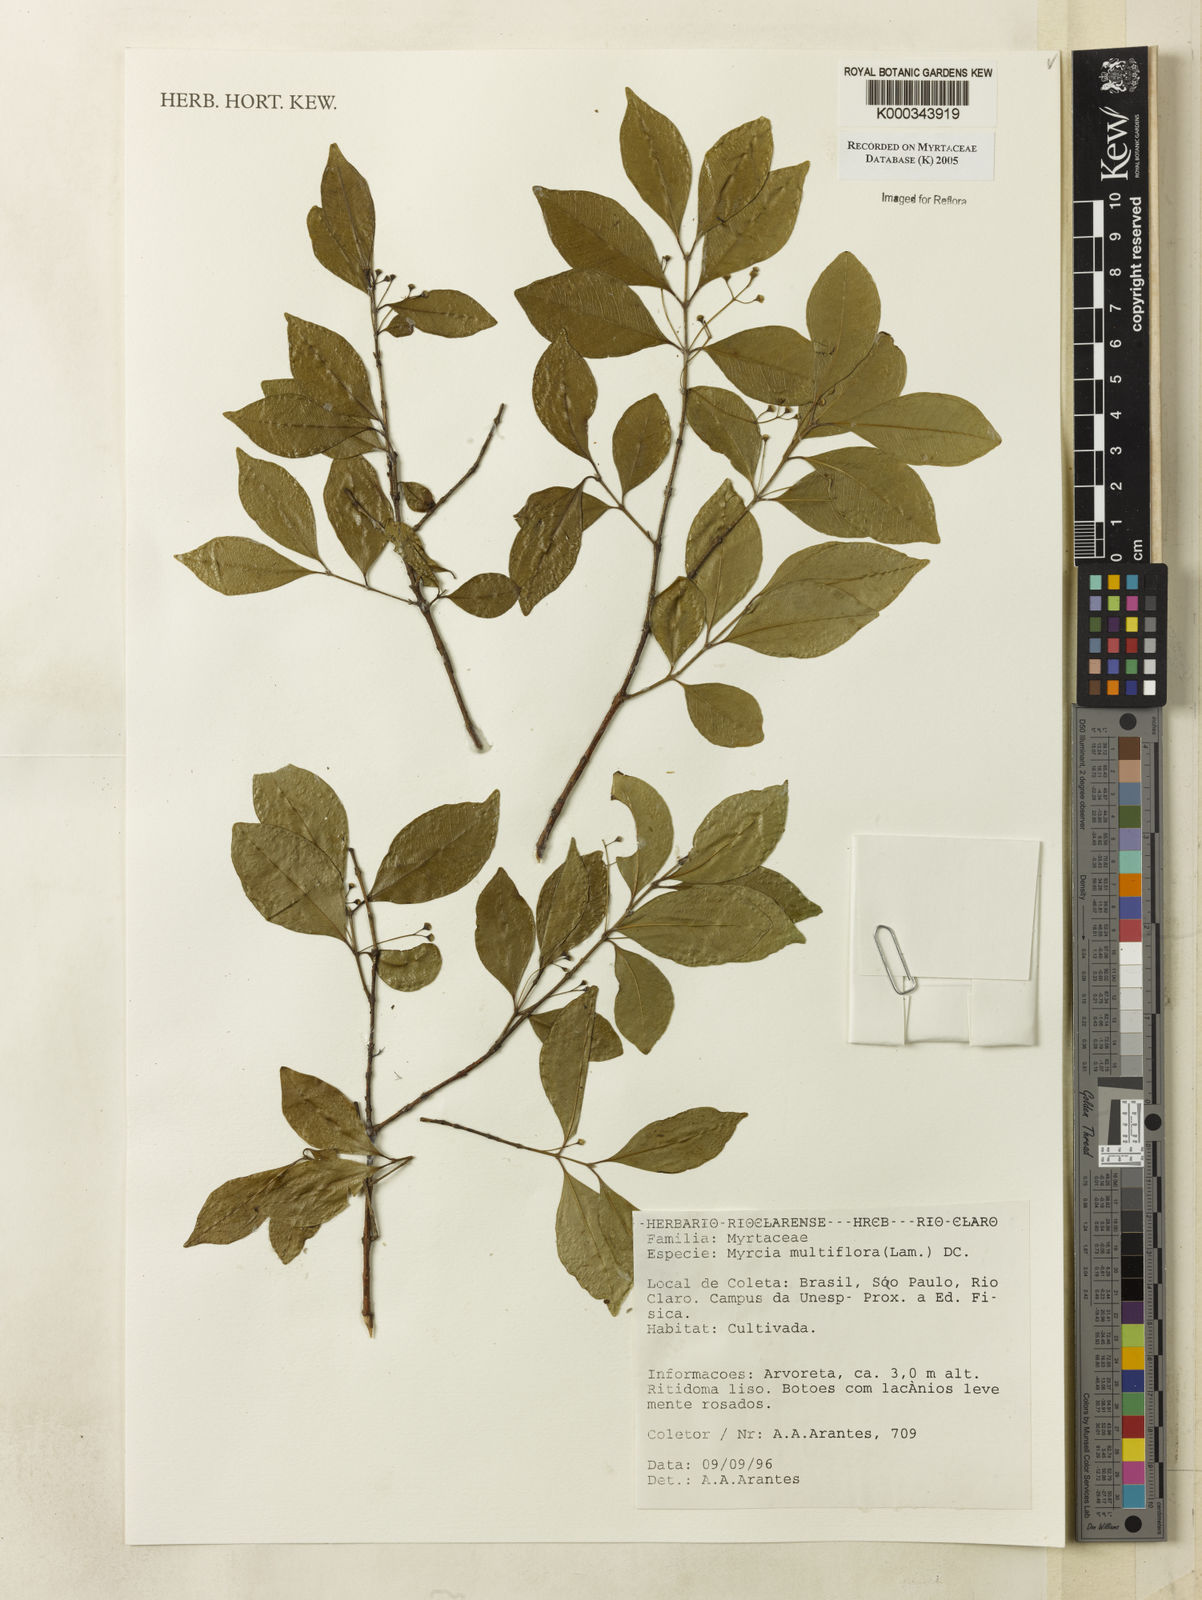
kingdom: Plantae
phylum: Tracheophyta
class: Magnoliopsida
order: Myrtales
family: Myrtaceae
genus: Myrcia
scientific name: Myrcia multiflora
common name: Pedra hume
